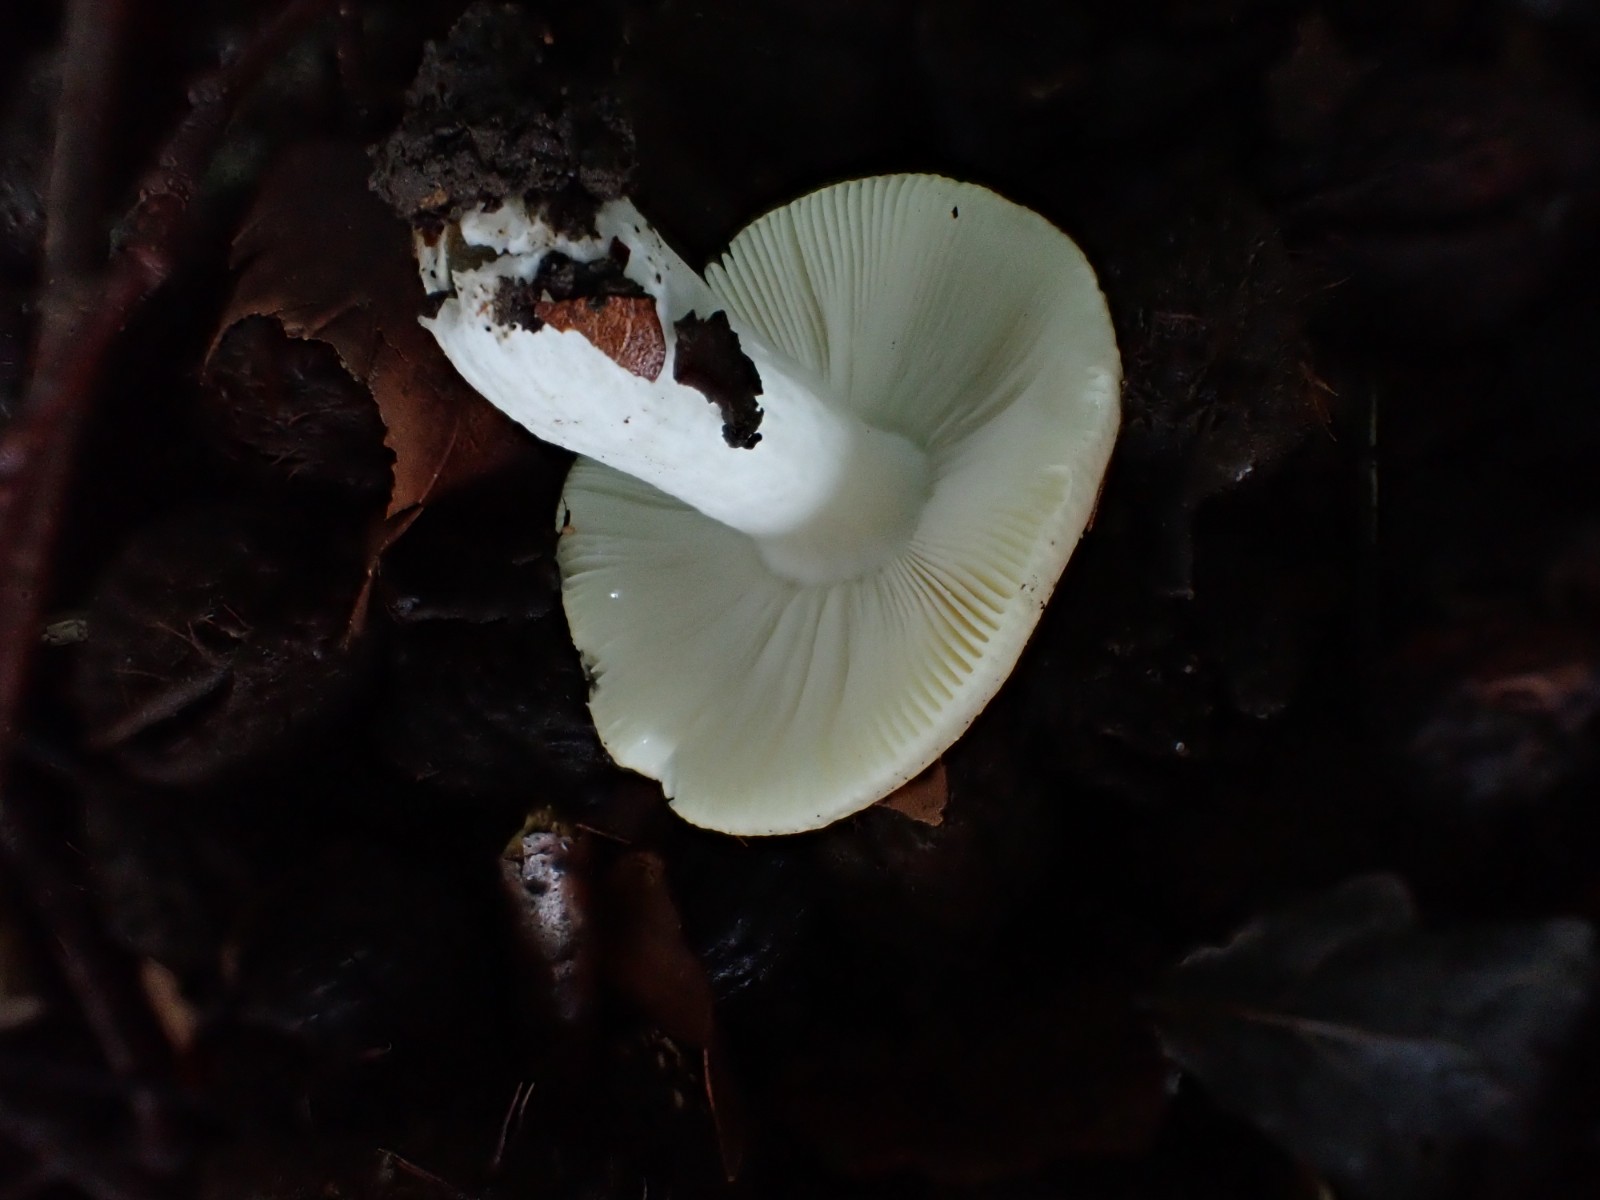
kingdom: Fungi
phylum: Basidiomycota
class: Agaricomycetes
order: Russulales
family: Russulaceae
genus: Russula
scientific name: Russula raoultii
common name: bleggul skørhat
